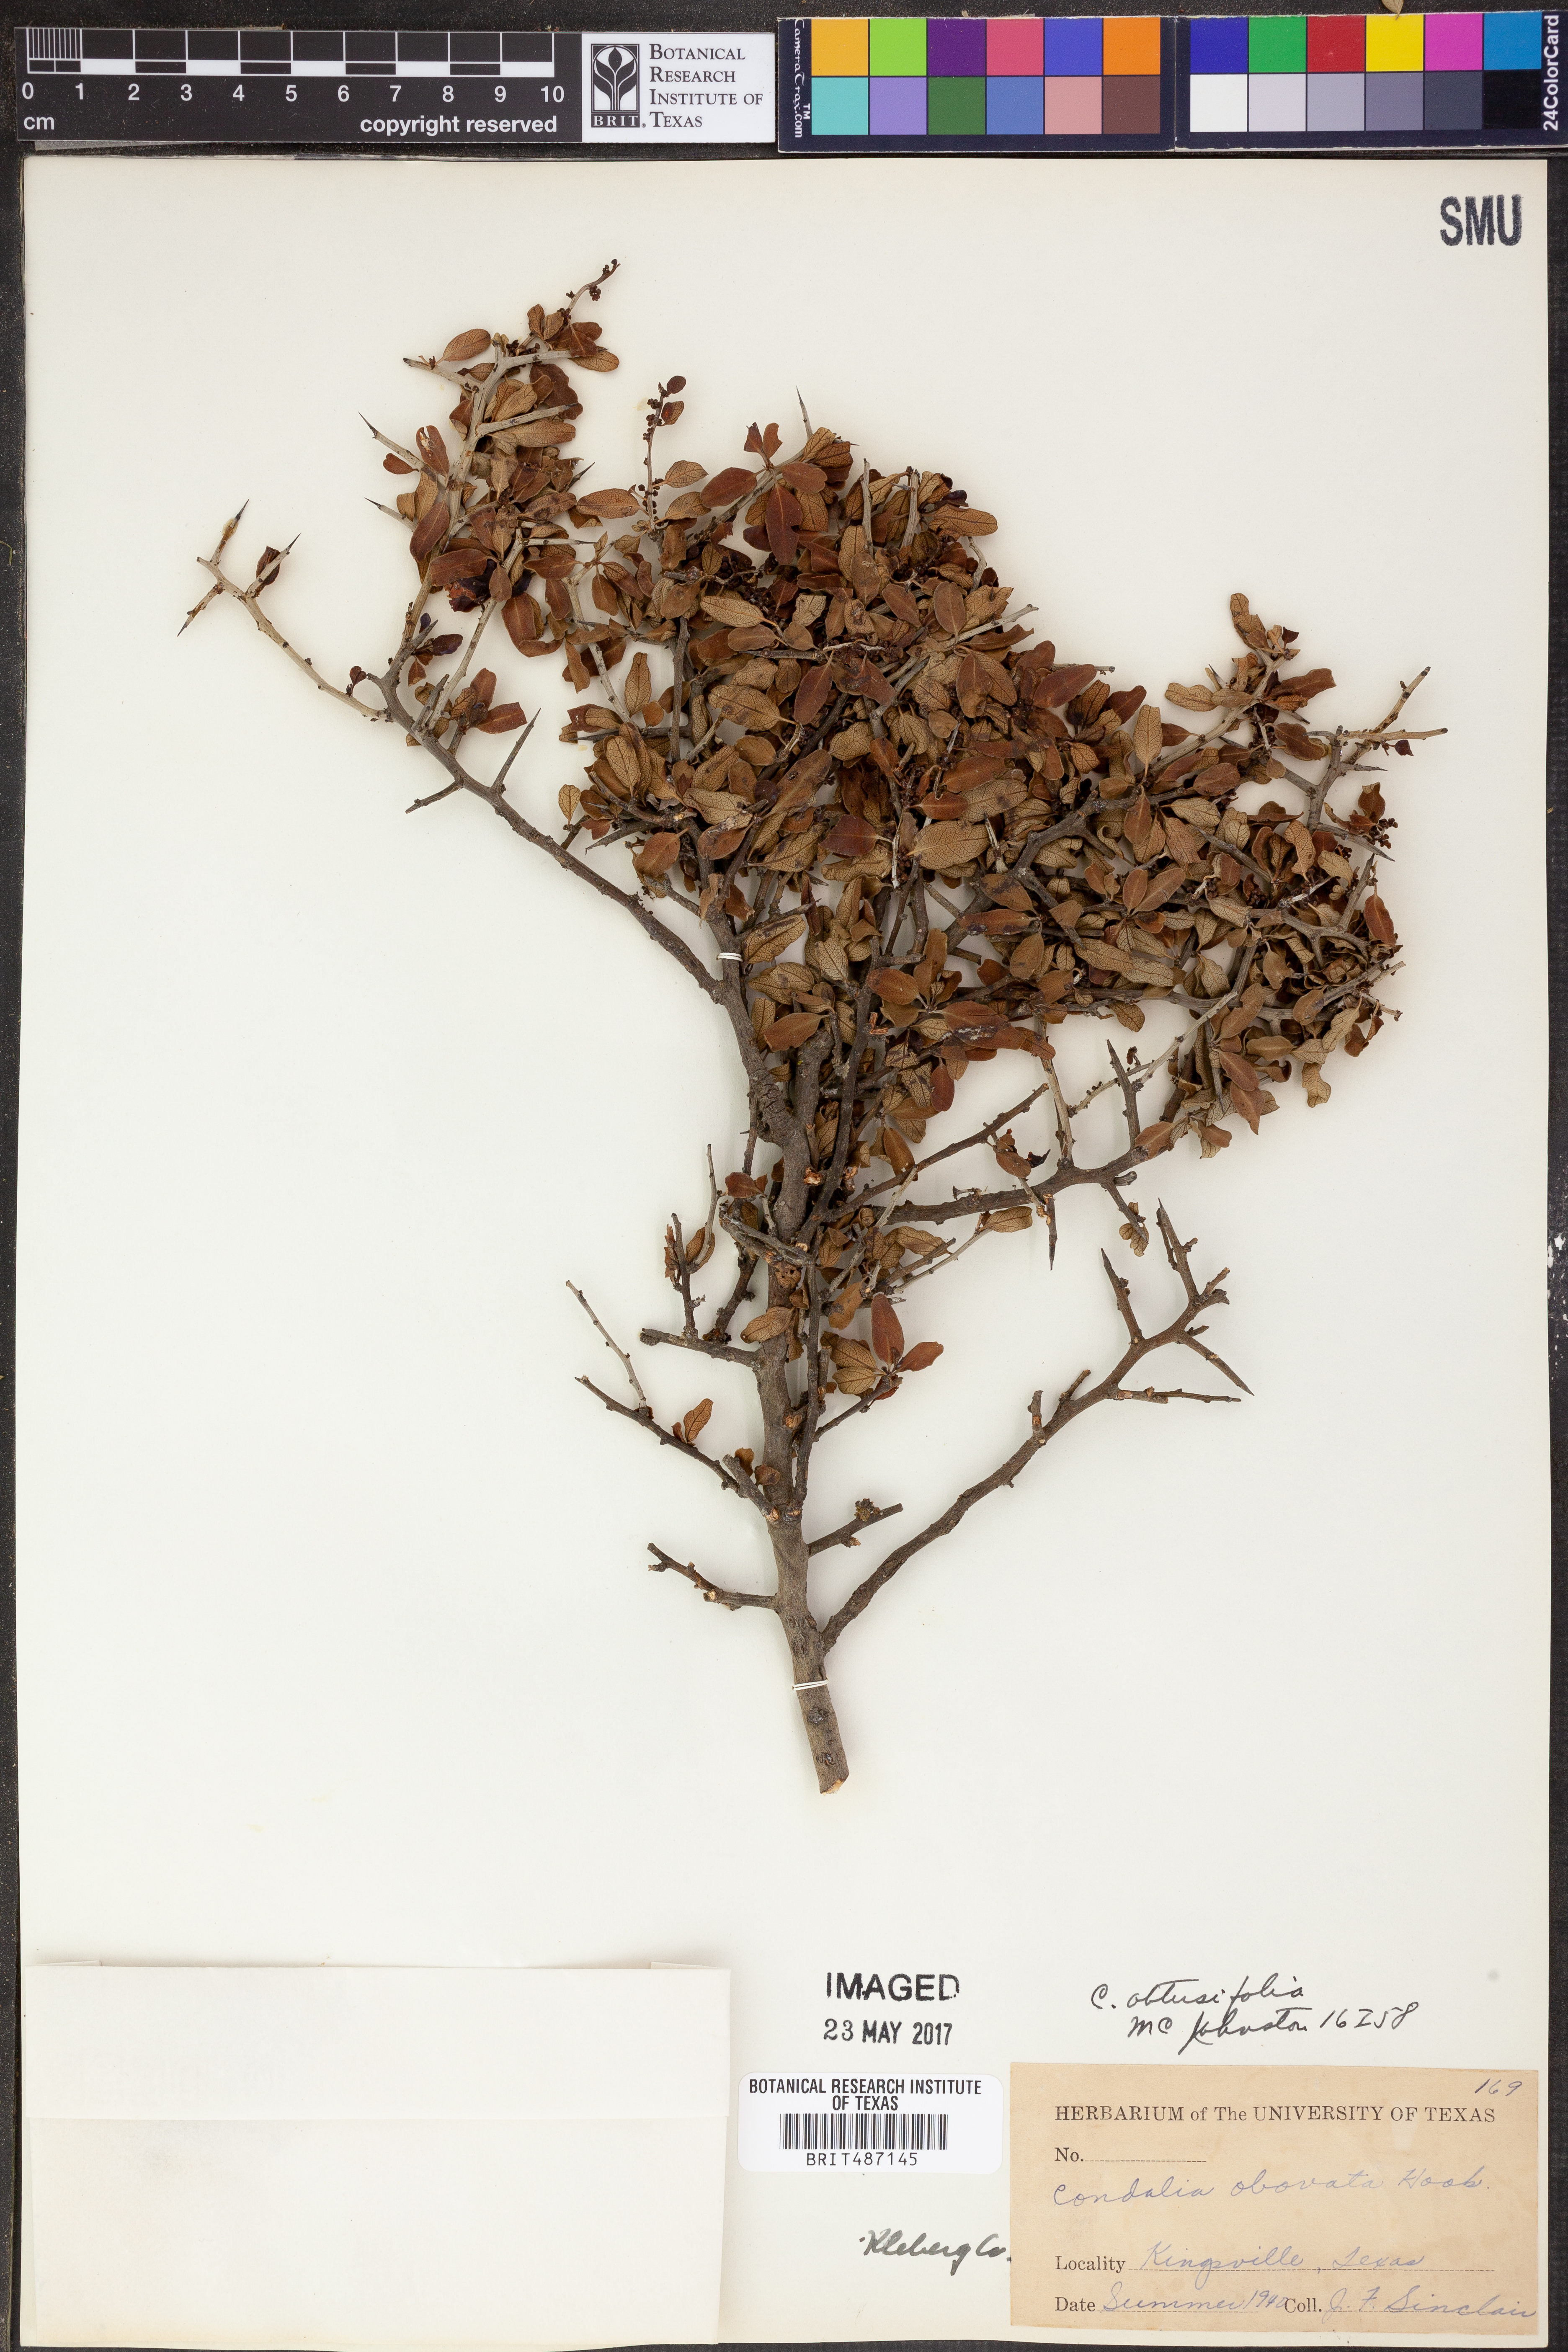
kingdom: Plantae
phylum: Tracheophyta
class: Magnoliopsida
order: Rosales
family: Rhamnaceae
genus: Sarcomphalus
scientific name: Sarcomphalus obtusifolius
